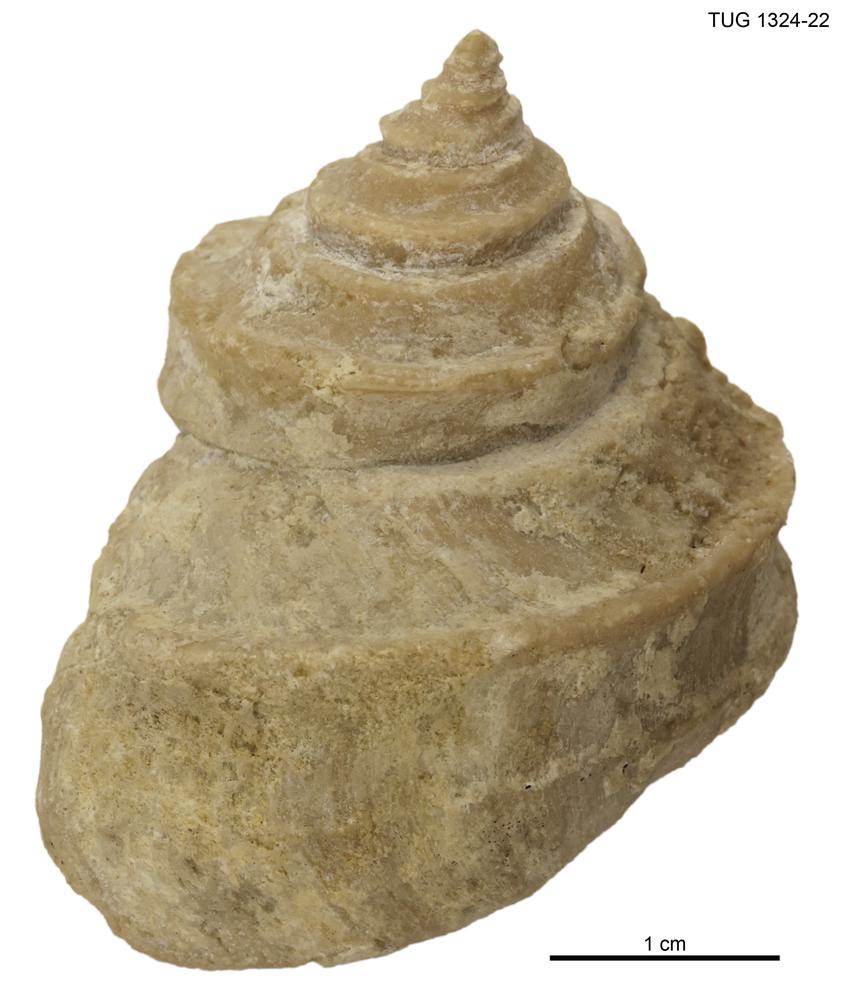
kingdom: Animalia
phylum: Mollusca
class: Gastropoda
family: Lophospiridae
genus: Ruedemannia
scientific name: Ruedemannia Worthenia borkholmiensis
